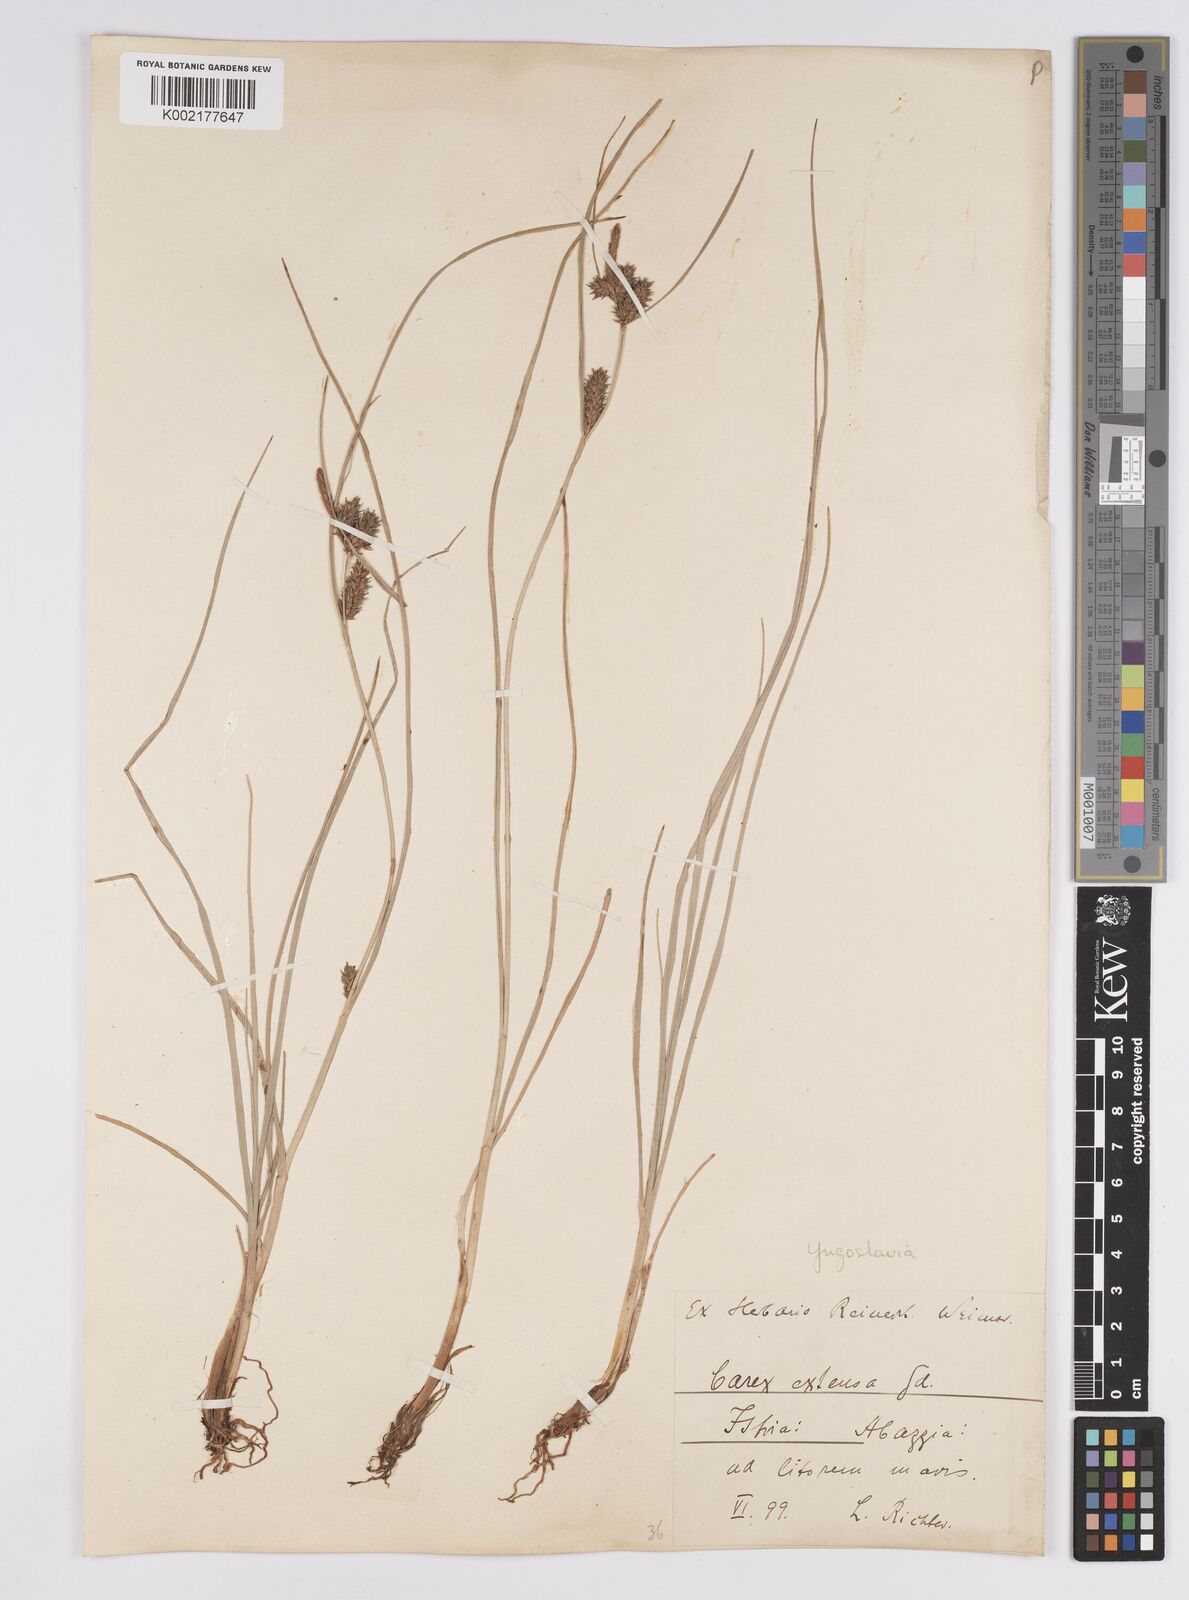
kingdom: Plantae
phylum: Tracheophyta
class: Liliopsida
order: Poales
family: Cyperaceae
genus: Carex
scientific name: Carex extensa
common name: Long-bracted sedge
